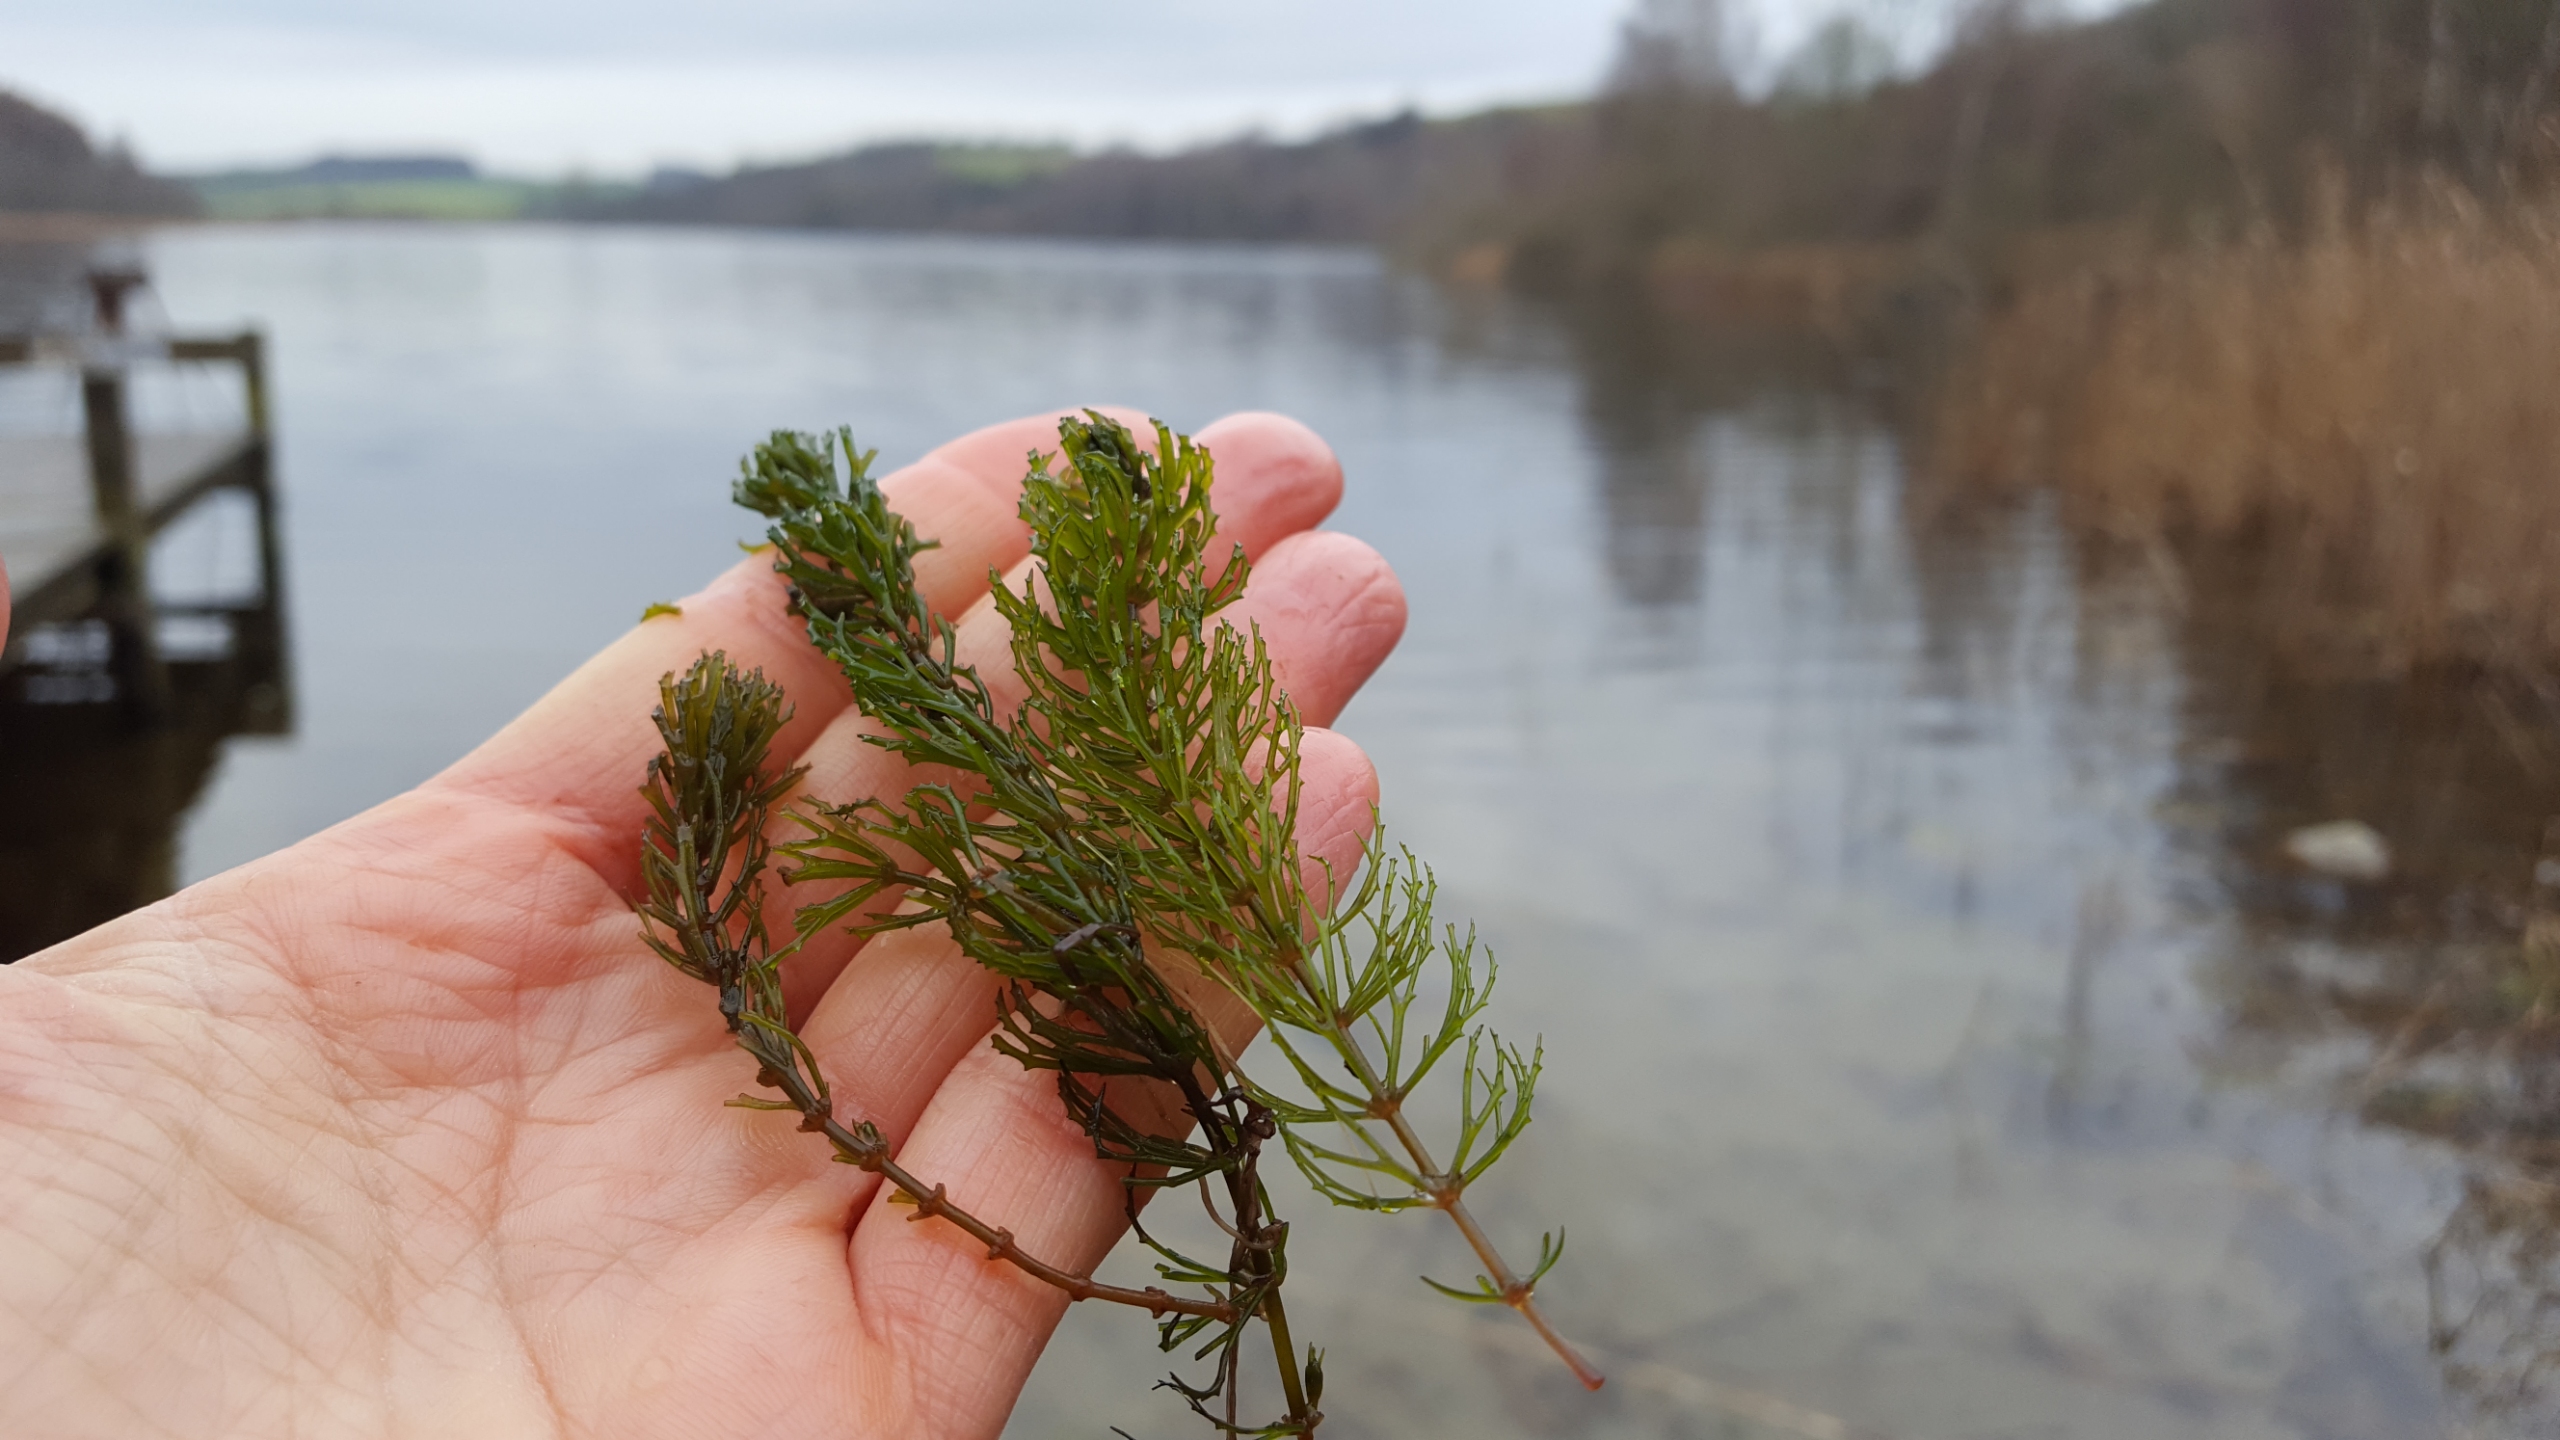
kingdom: Plantae
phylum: Tracheophyta
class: Magnoliopsida
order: Ceratophyllales
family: Ceratophyllaceae
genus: Ceratophyllum
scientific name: Ceratophyllum demersum
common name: Tornfrøet hornblad
